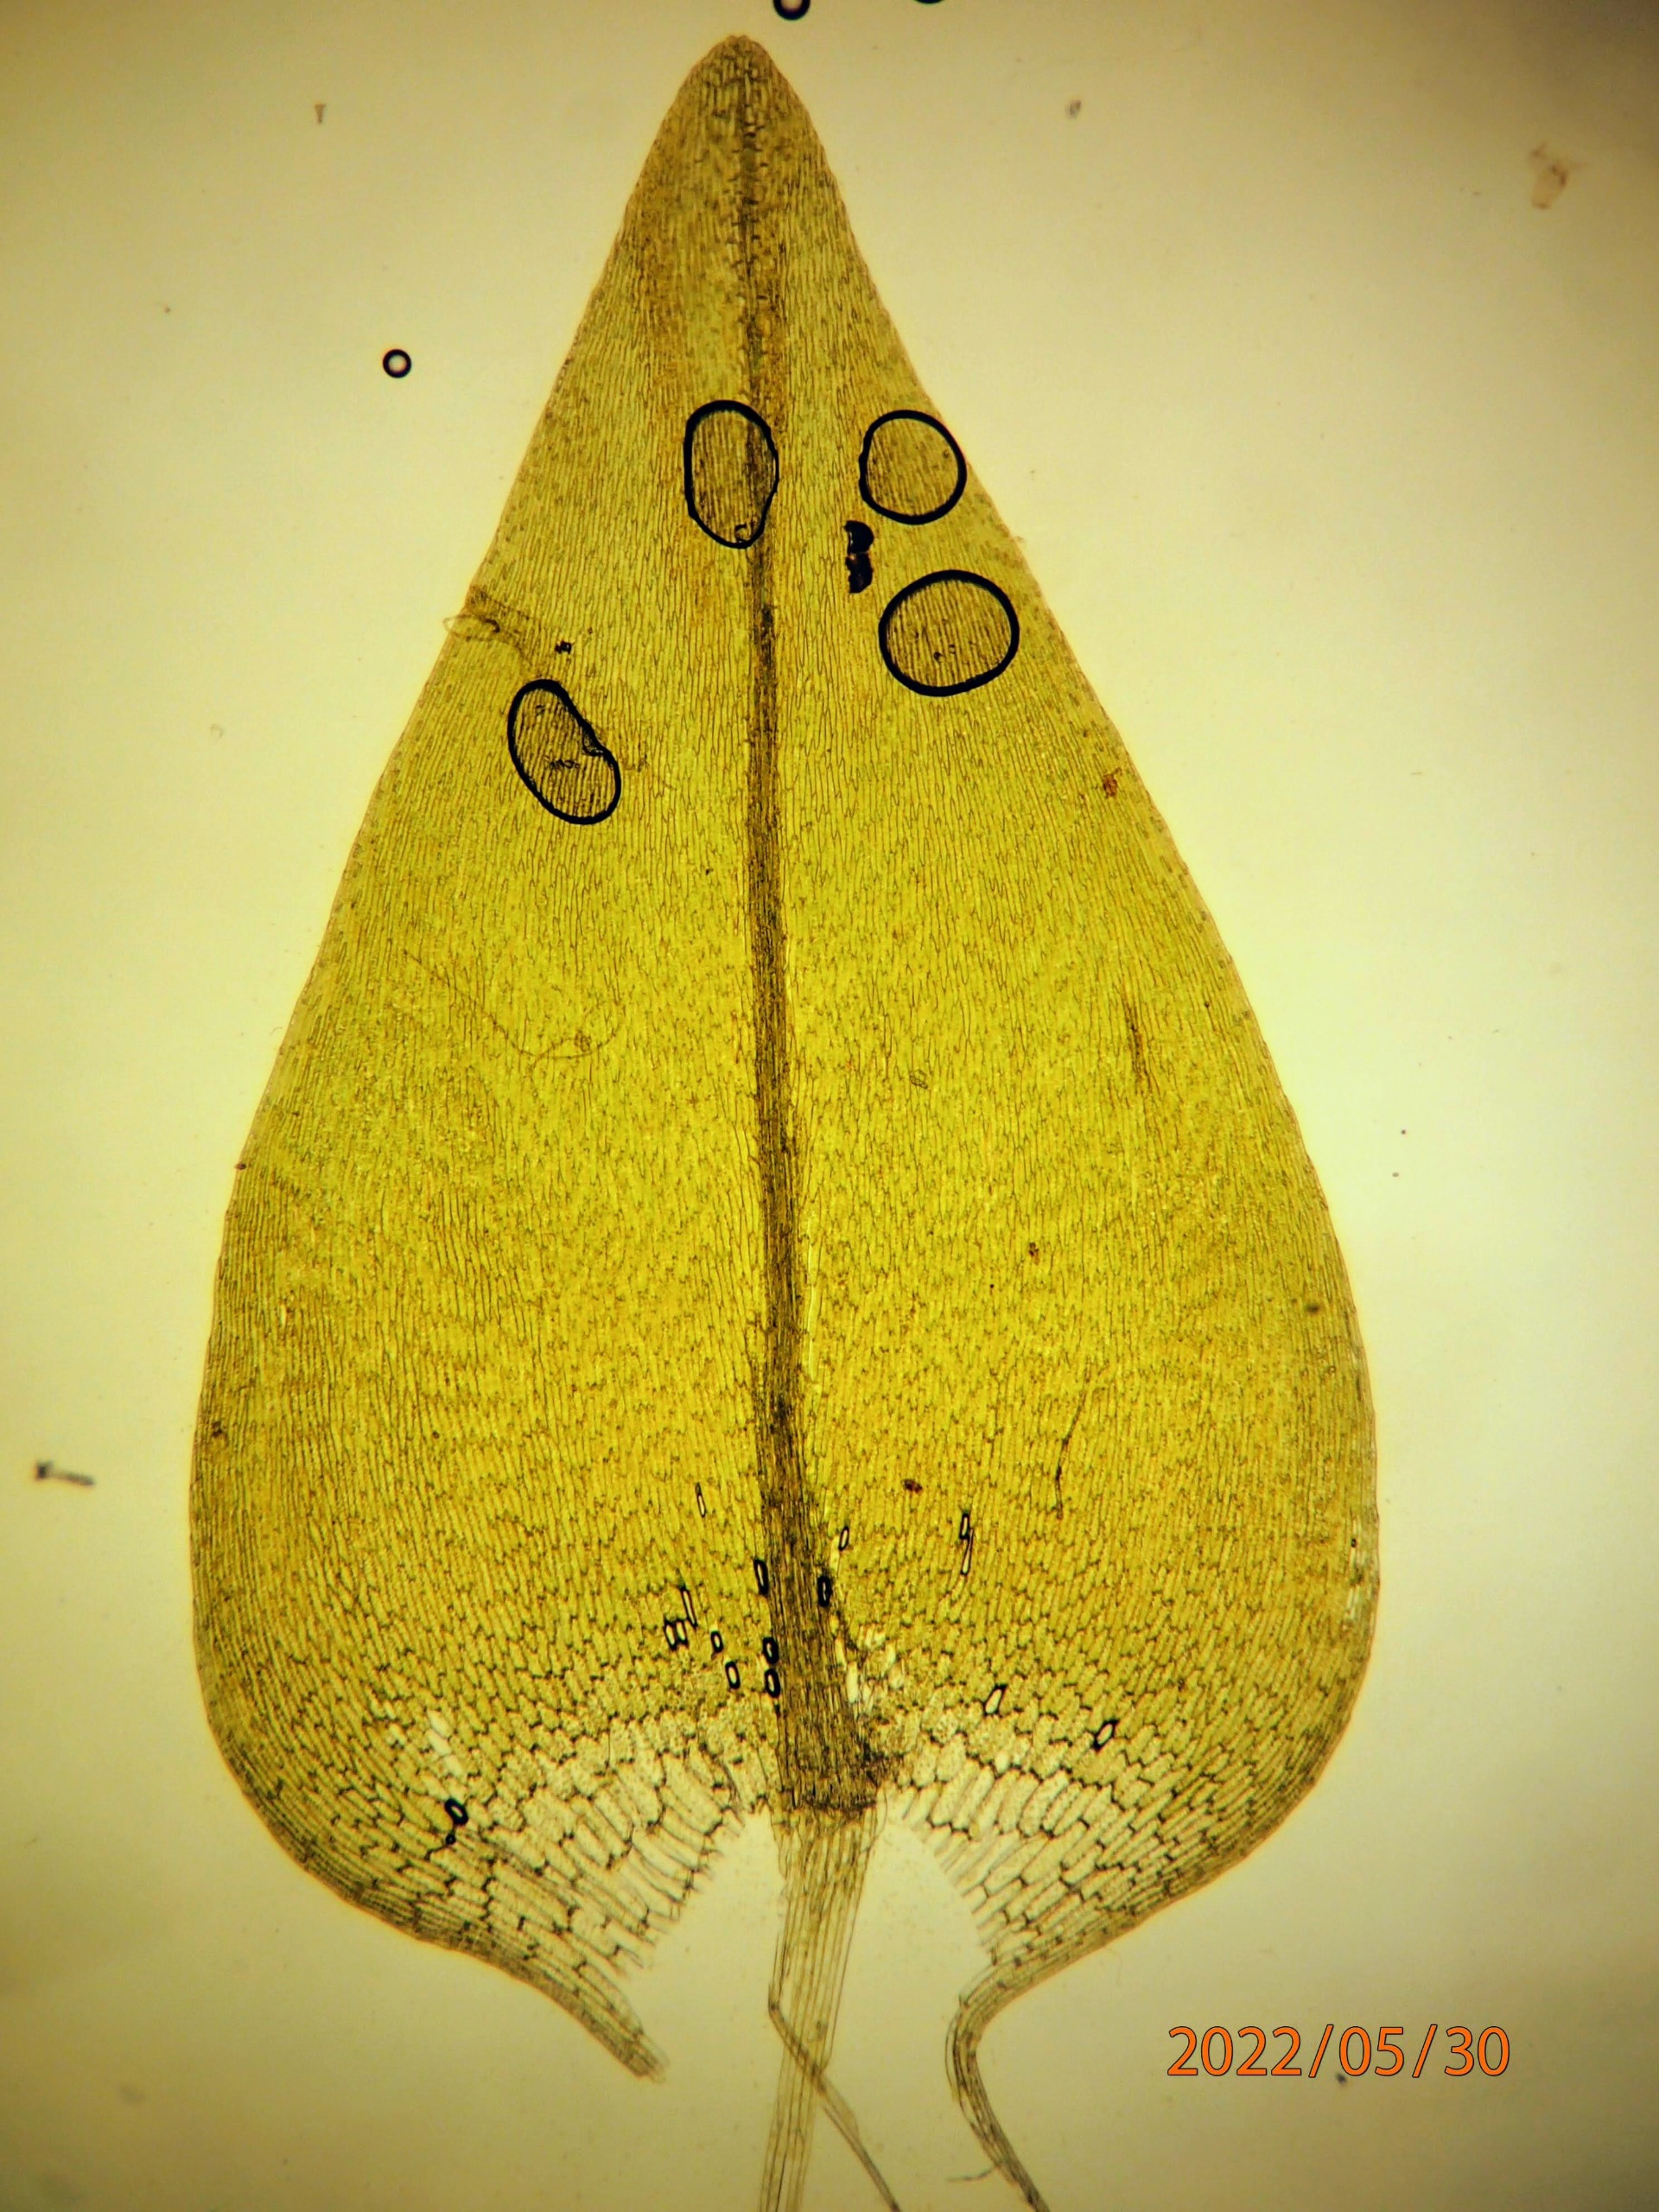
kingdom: Plantae
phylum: Bryophyta
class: Bryopsida
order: Hypnales
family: Calliergonaceae
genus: Calliergon
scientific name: Calliergon cordifolium
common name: Almindelig skebladsmos
